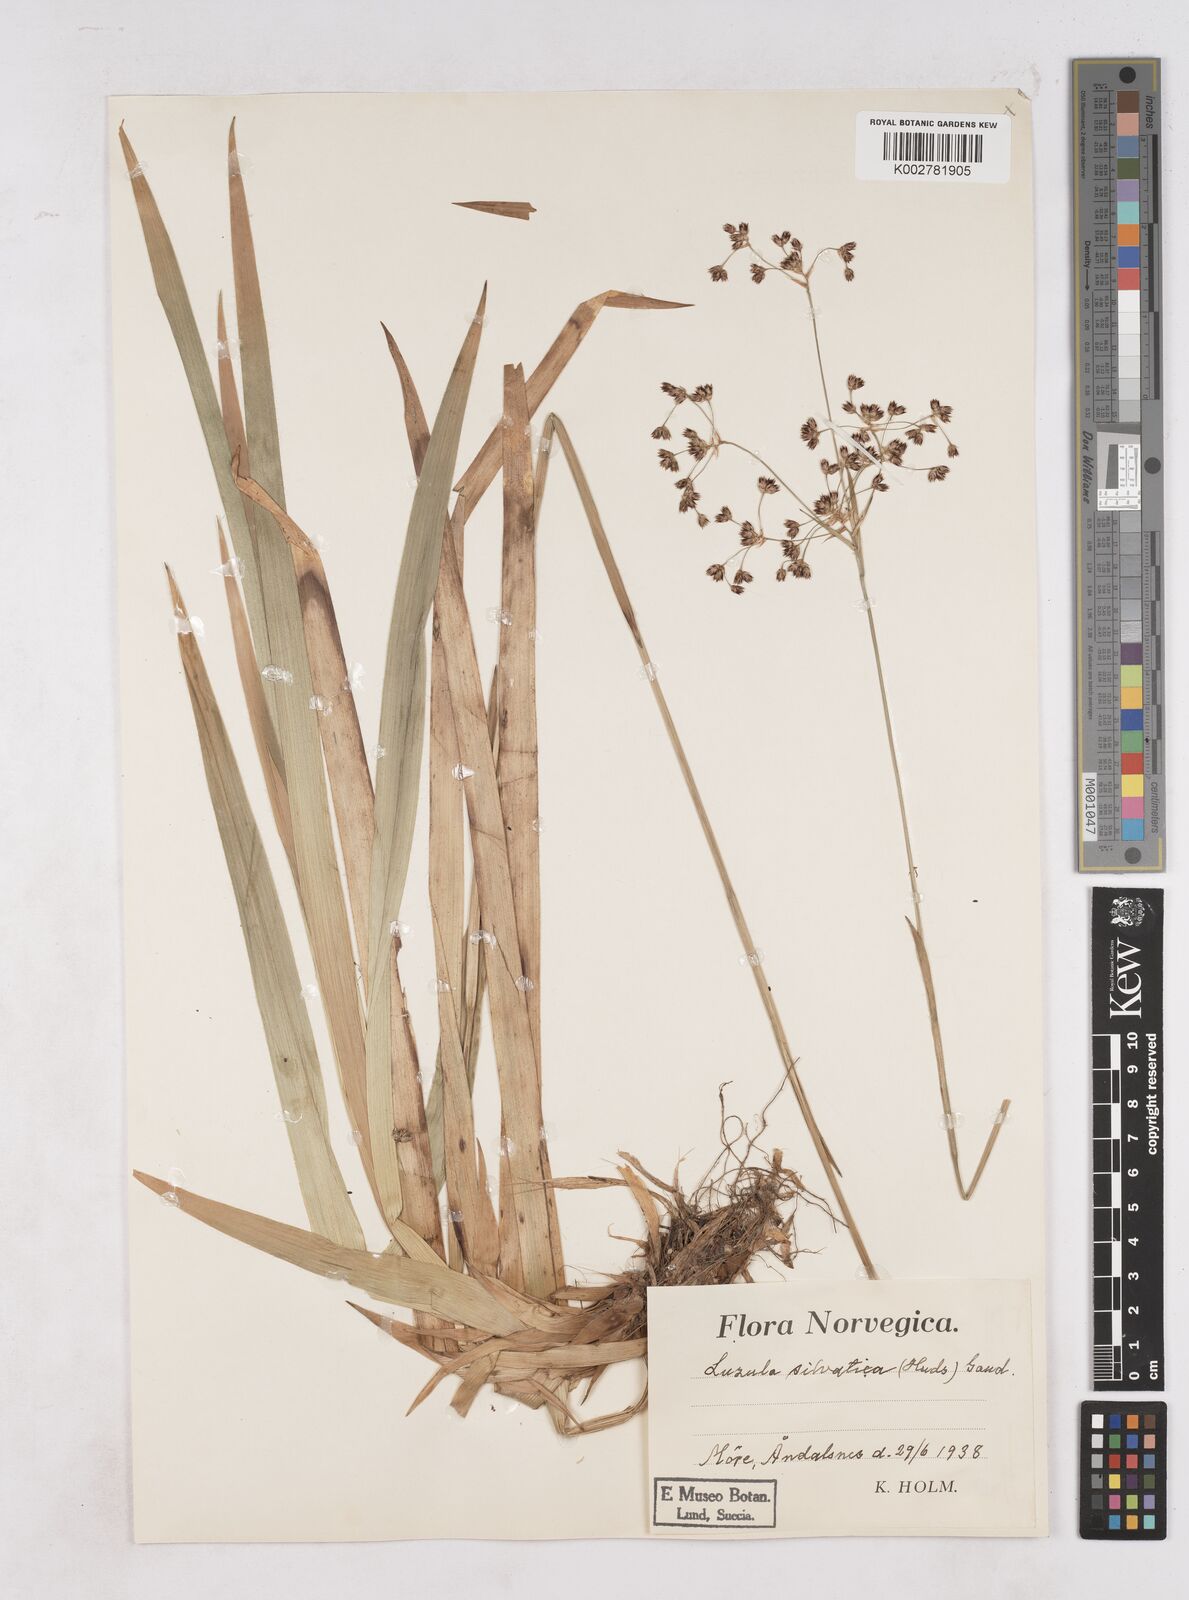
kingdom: Plantae
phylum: Tracheophyta
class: Liliopsida
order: Poales
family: Juncaceae
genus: Luzula
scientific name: Luzula sylvatica
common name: Great wood-rush
